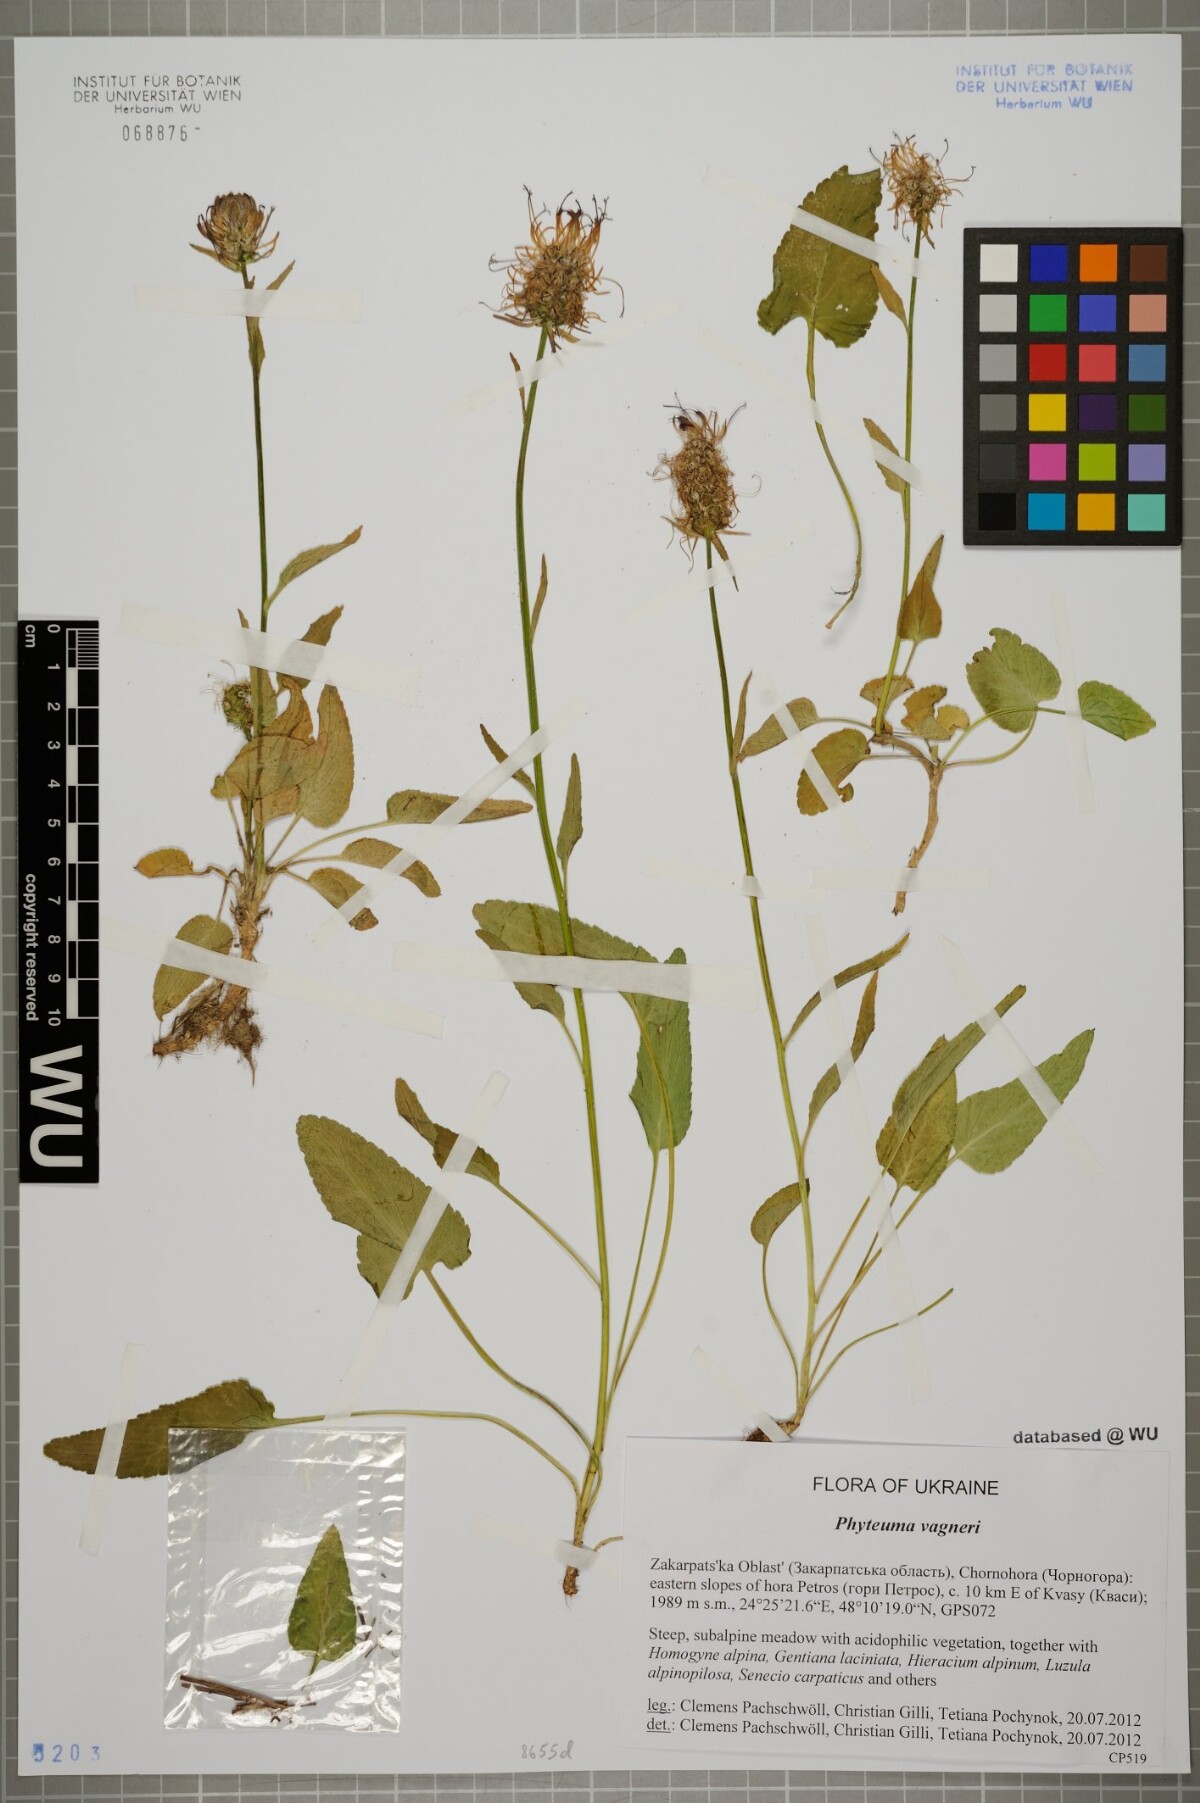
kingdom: Plantae
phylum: Tracheophyta
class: Magnoliopsida
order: Asterales
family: Campanulaceae
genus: Phyteuma
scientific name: Phyteuma vagneri
